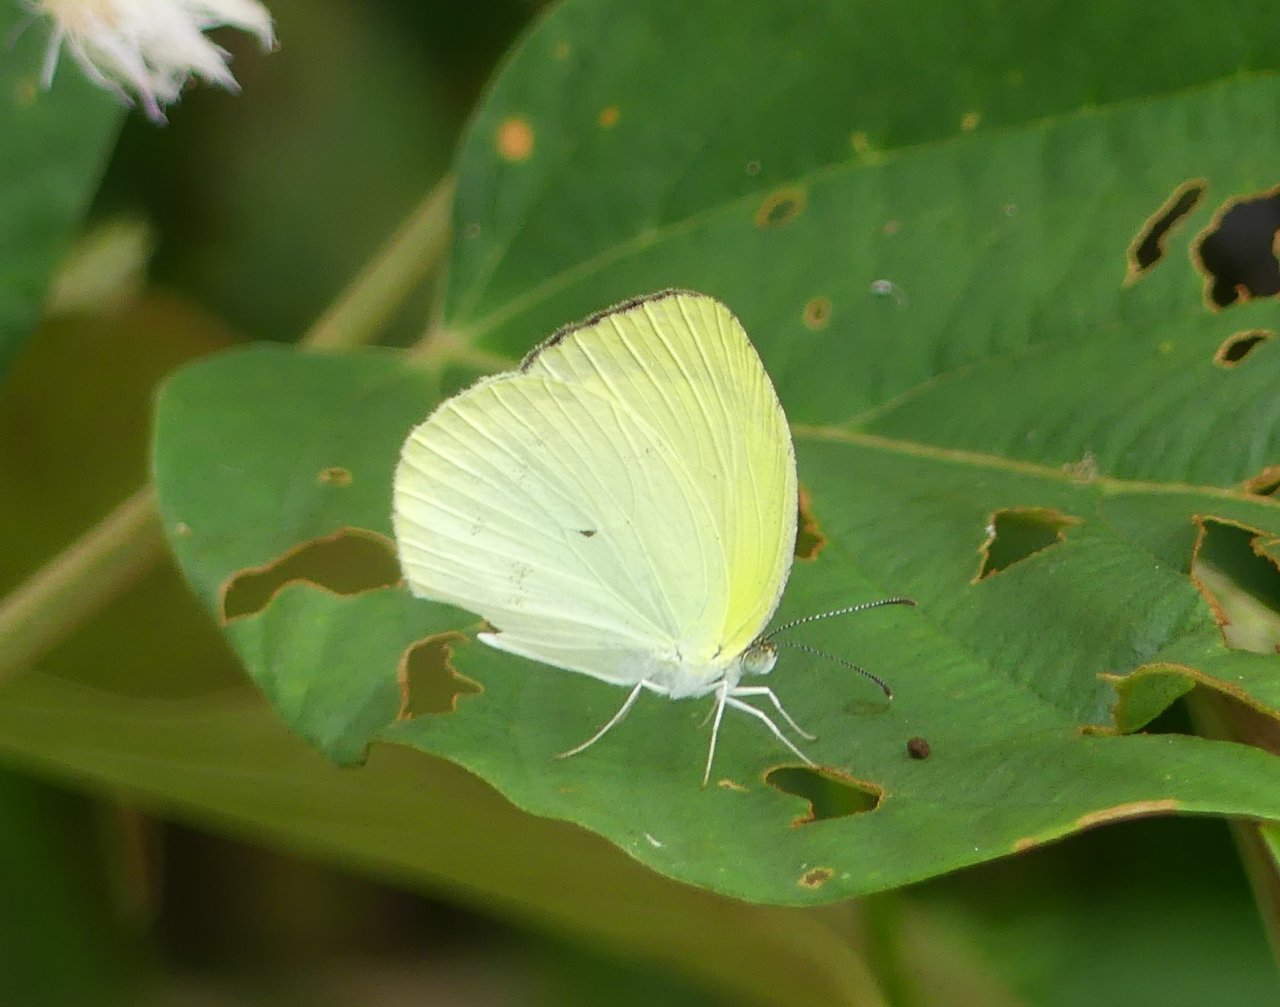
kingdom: Animalia
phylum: Arthropoda
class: Insecta
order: Lepidoptera
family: Pieridae
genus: Eurema
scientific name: Eurema agave
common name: Agave Yellow
